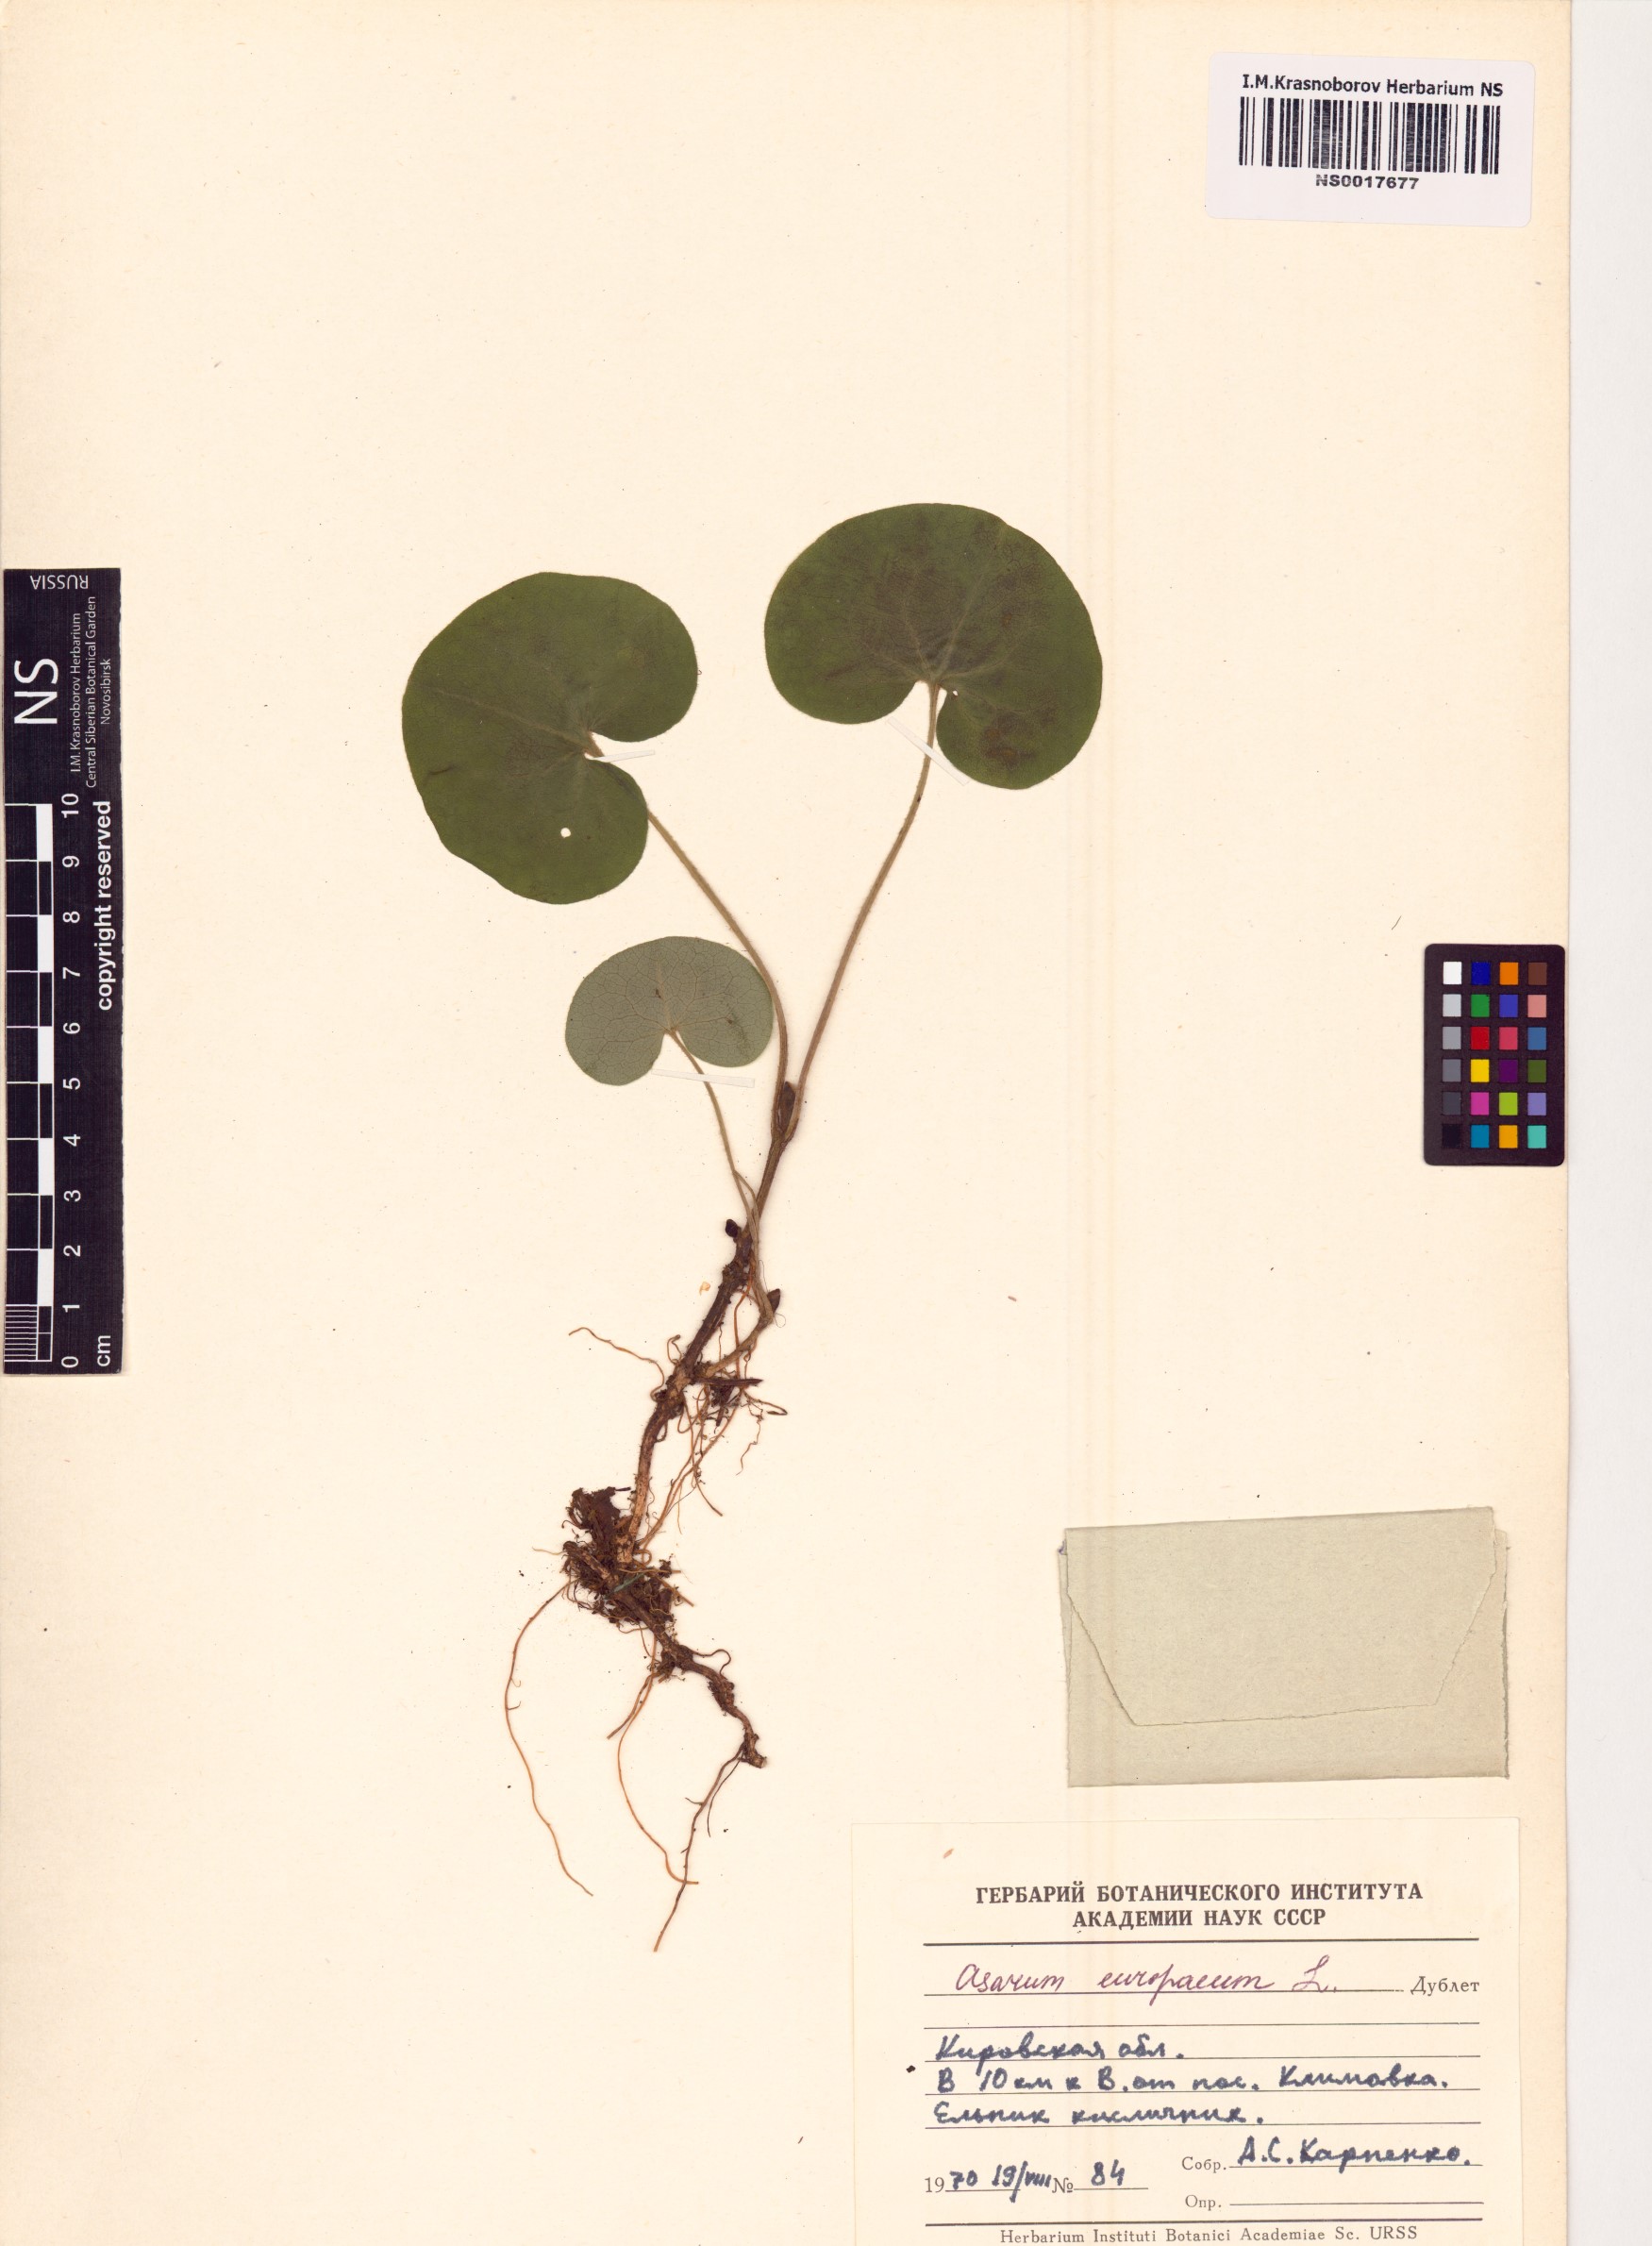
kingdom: Plantae
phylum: Tracheophyta
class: Magnoliopsida
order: Piperales
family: Aristolochiaceae
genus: Asarum
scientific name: Asarum europaeum
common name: Asarabacca
